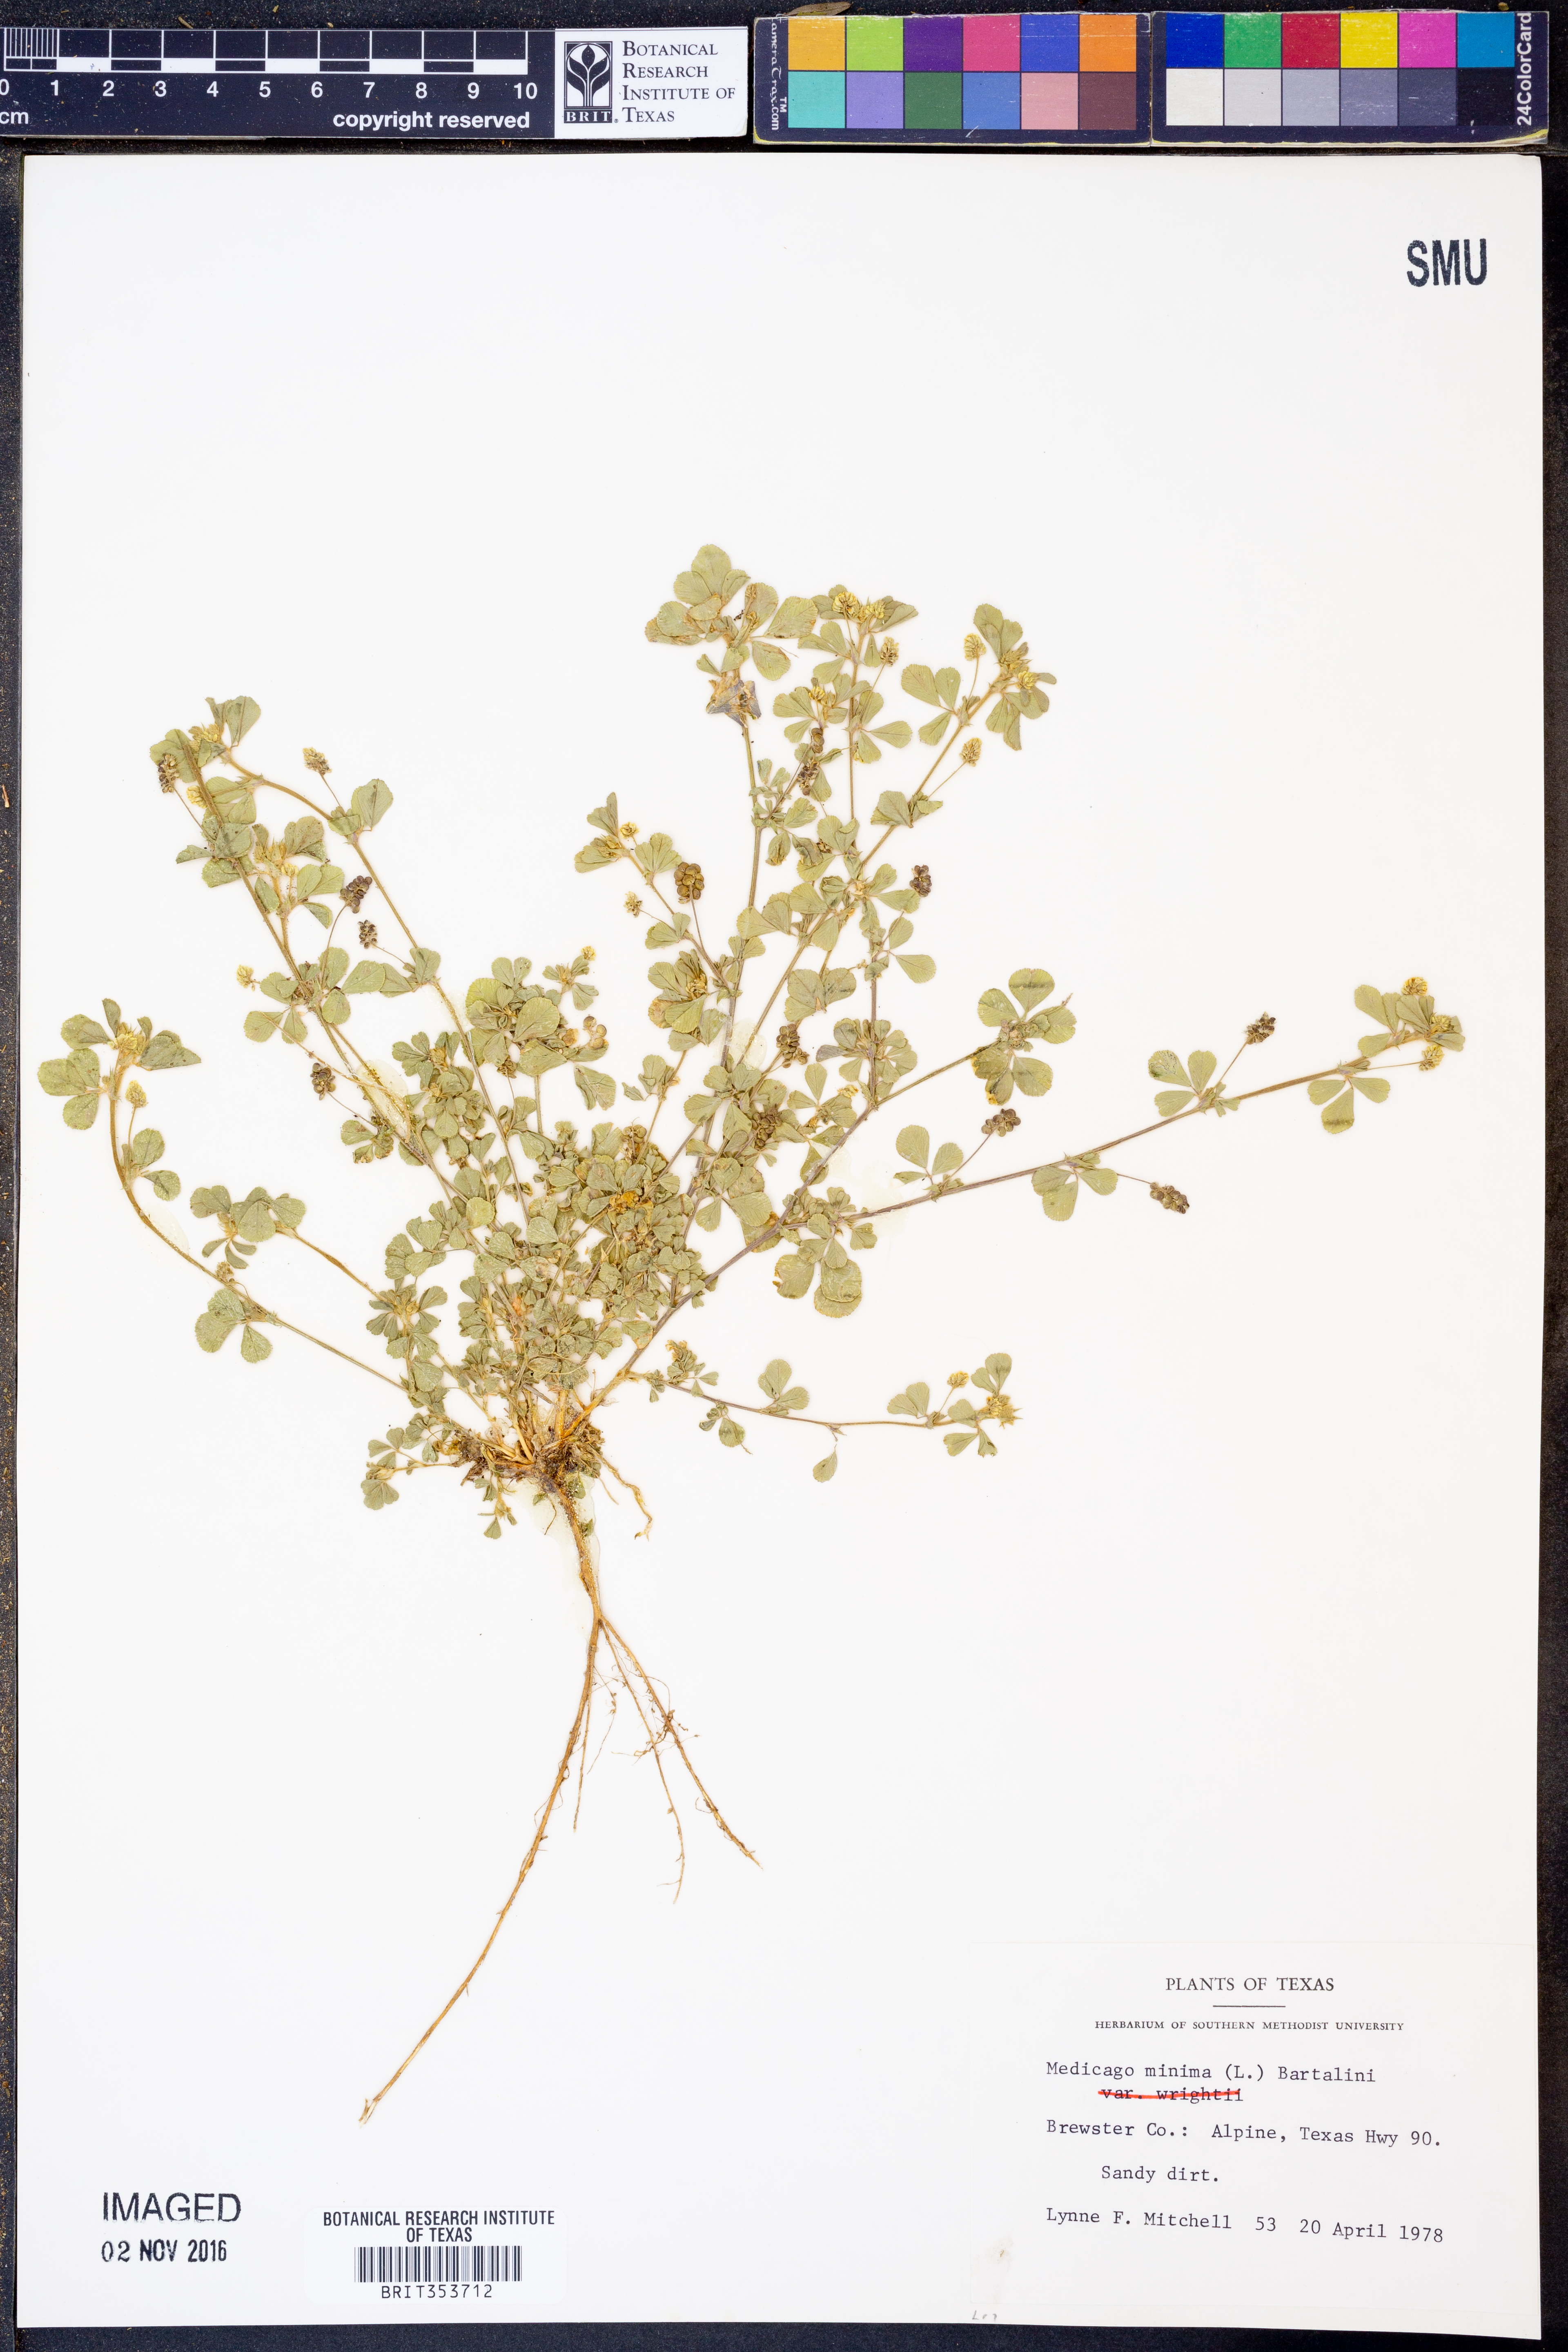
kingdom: Plantae
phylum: Tracheophyta
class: Magnoliopsida
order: Fabales
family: Fabaceae
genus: Medicago
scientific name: Medicago minima
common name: Little bur-clover
